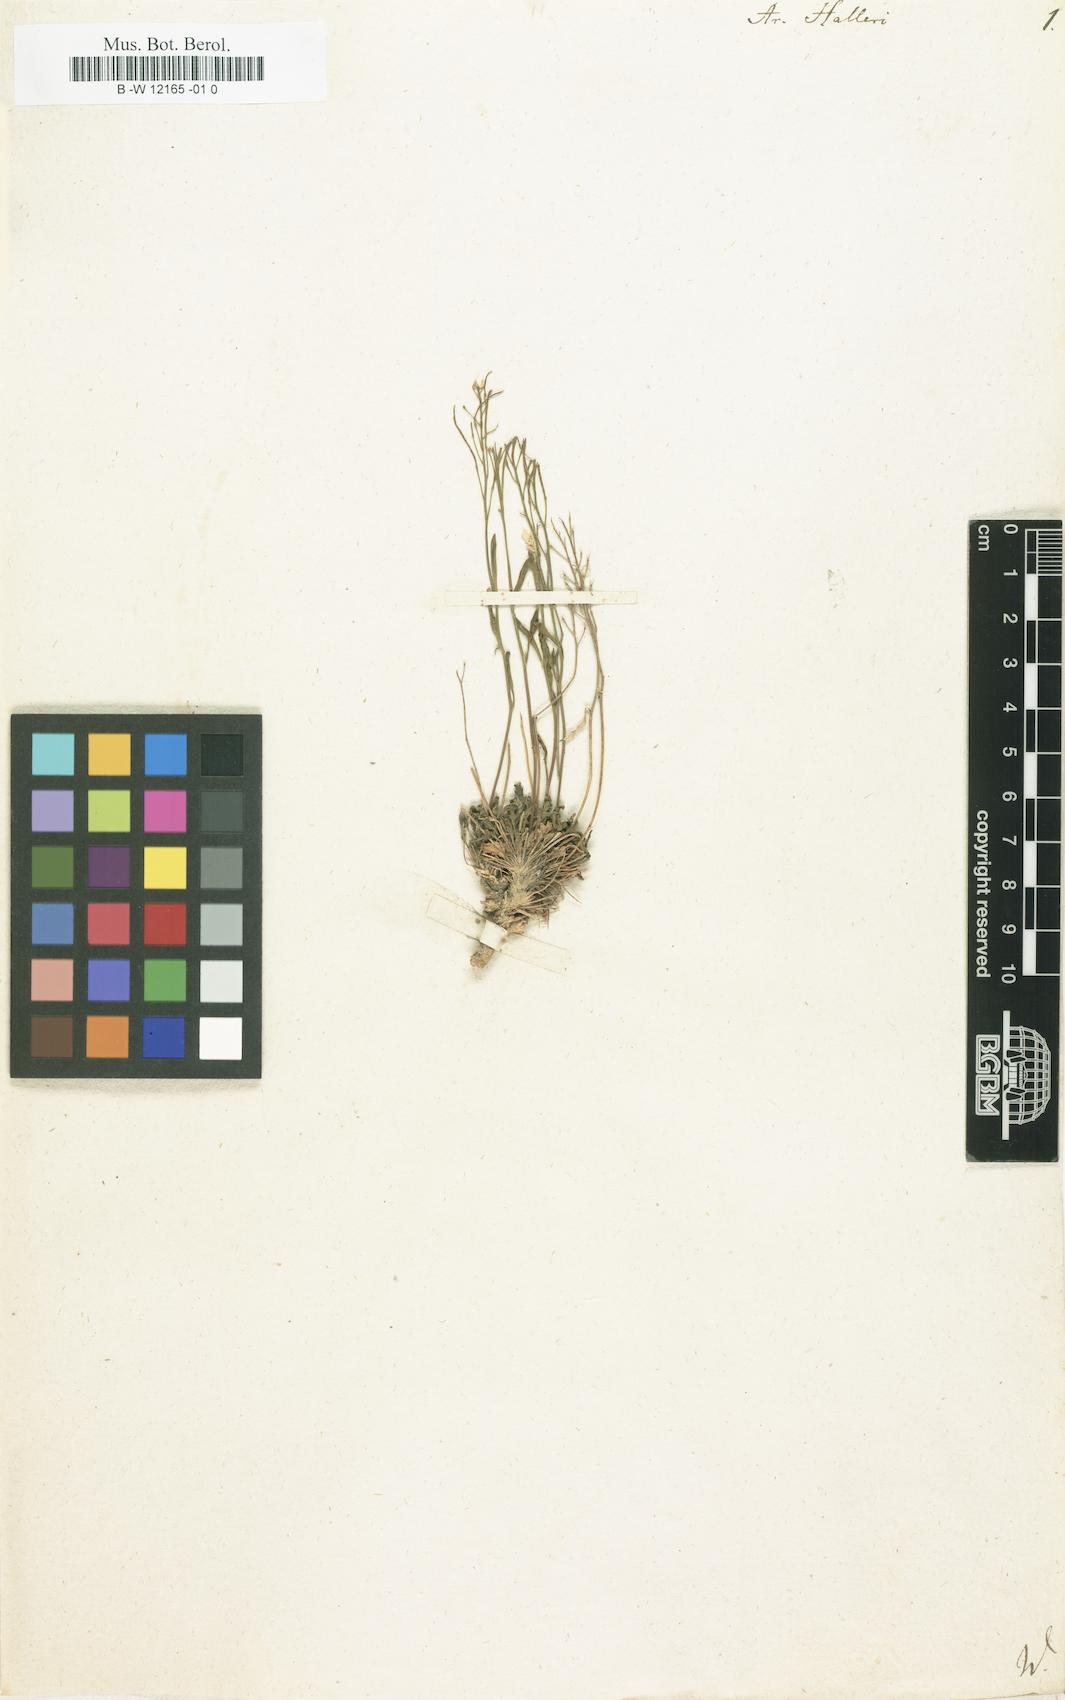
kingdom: Plantae
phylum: Tracheophyta
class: Magnoliopsida
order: Brassicales
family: Brassicaceae
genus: Arabidopsis
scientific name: Arabidopsis
